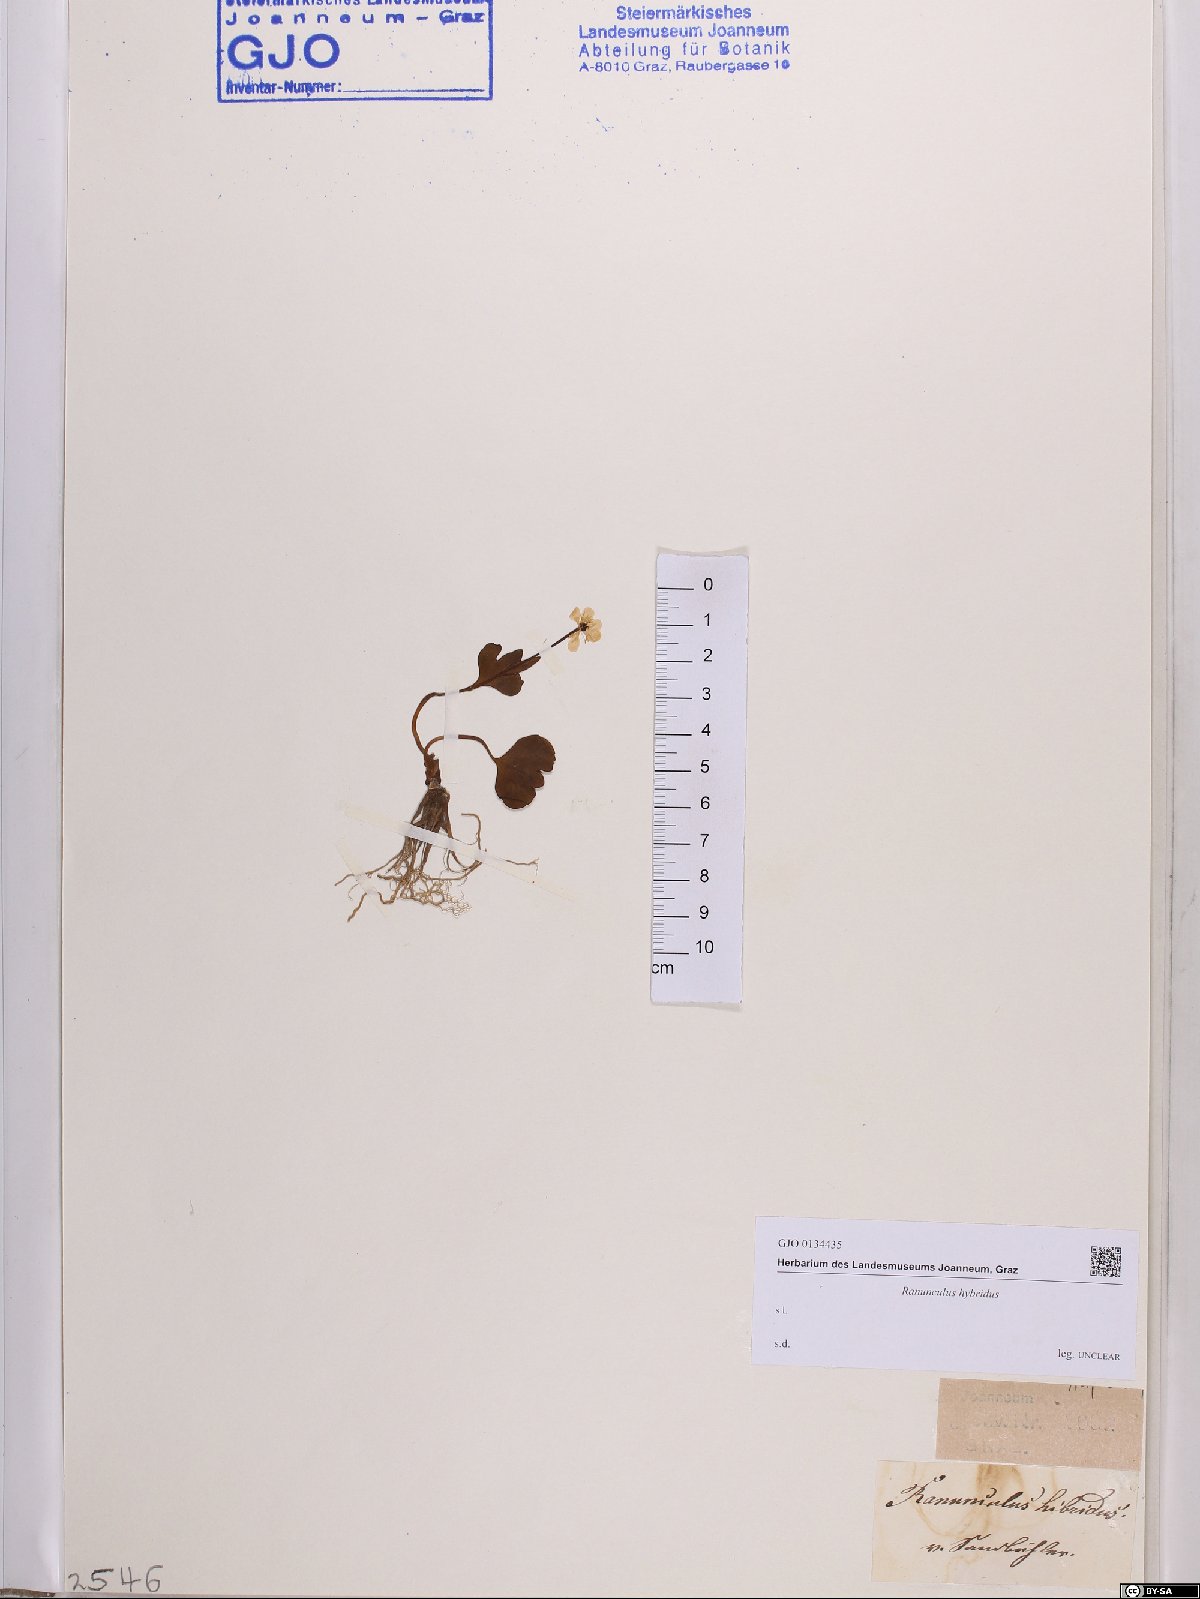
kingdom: Plantae
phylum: Tracheophyta
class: Magnoliopsida
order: Ranunculales
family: Ranunculaceae
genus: Ranunculus
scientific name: Ranunculus hybridus
